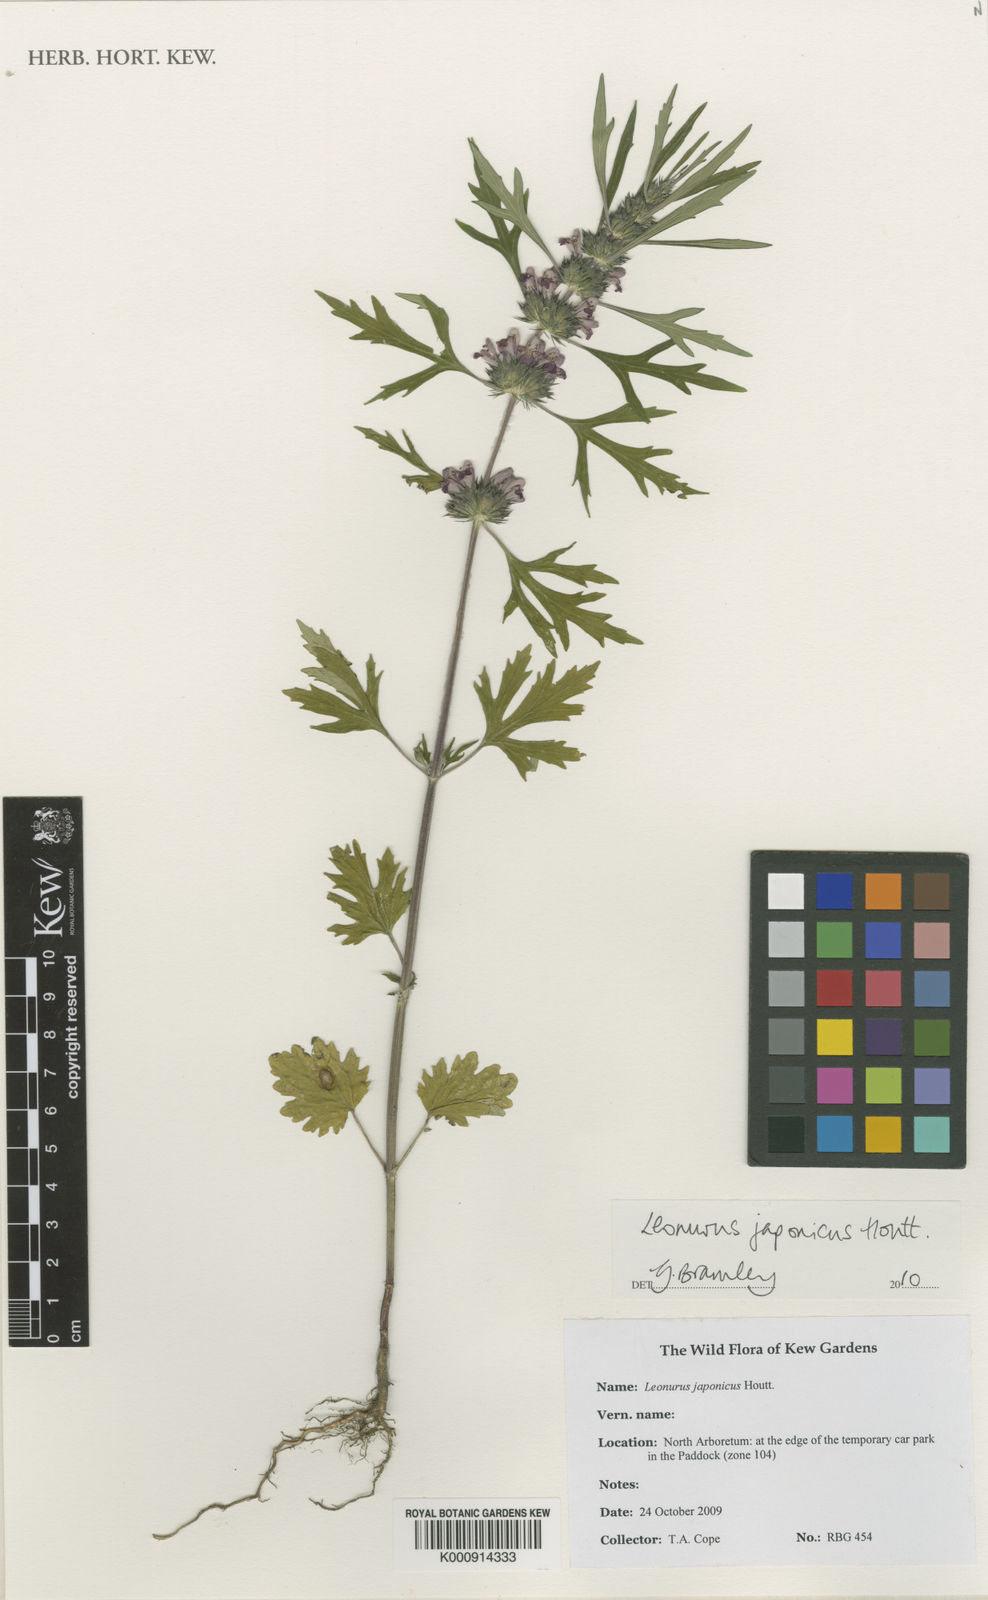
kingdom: Plantae
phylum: Tracheophyta
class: Magnoliopsida
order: Lamiales
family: Lamiaceae
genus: Leonurus
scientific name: Leonurus japonicus
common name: Honeyweed
